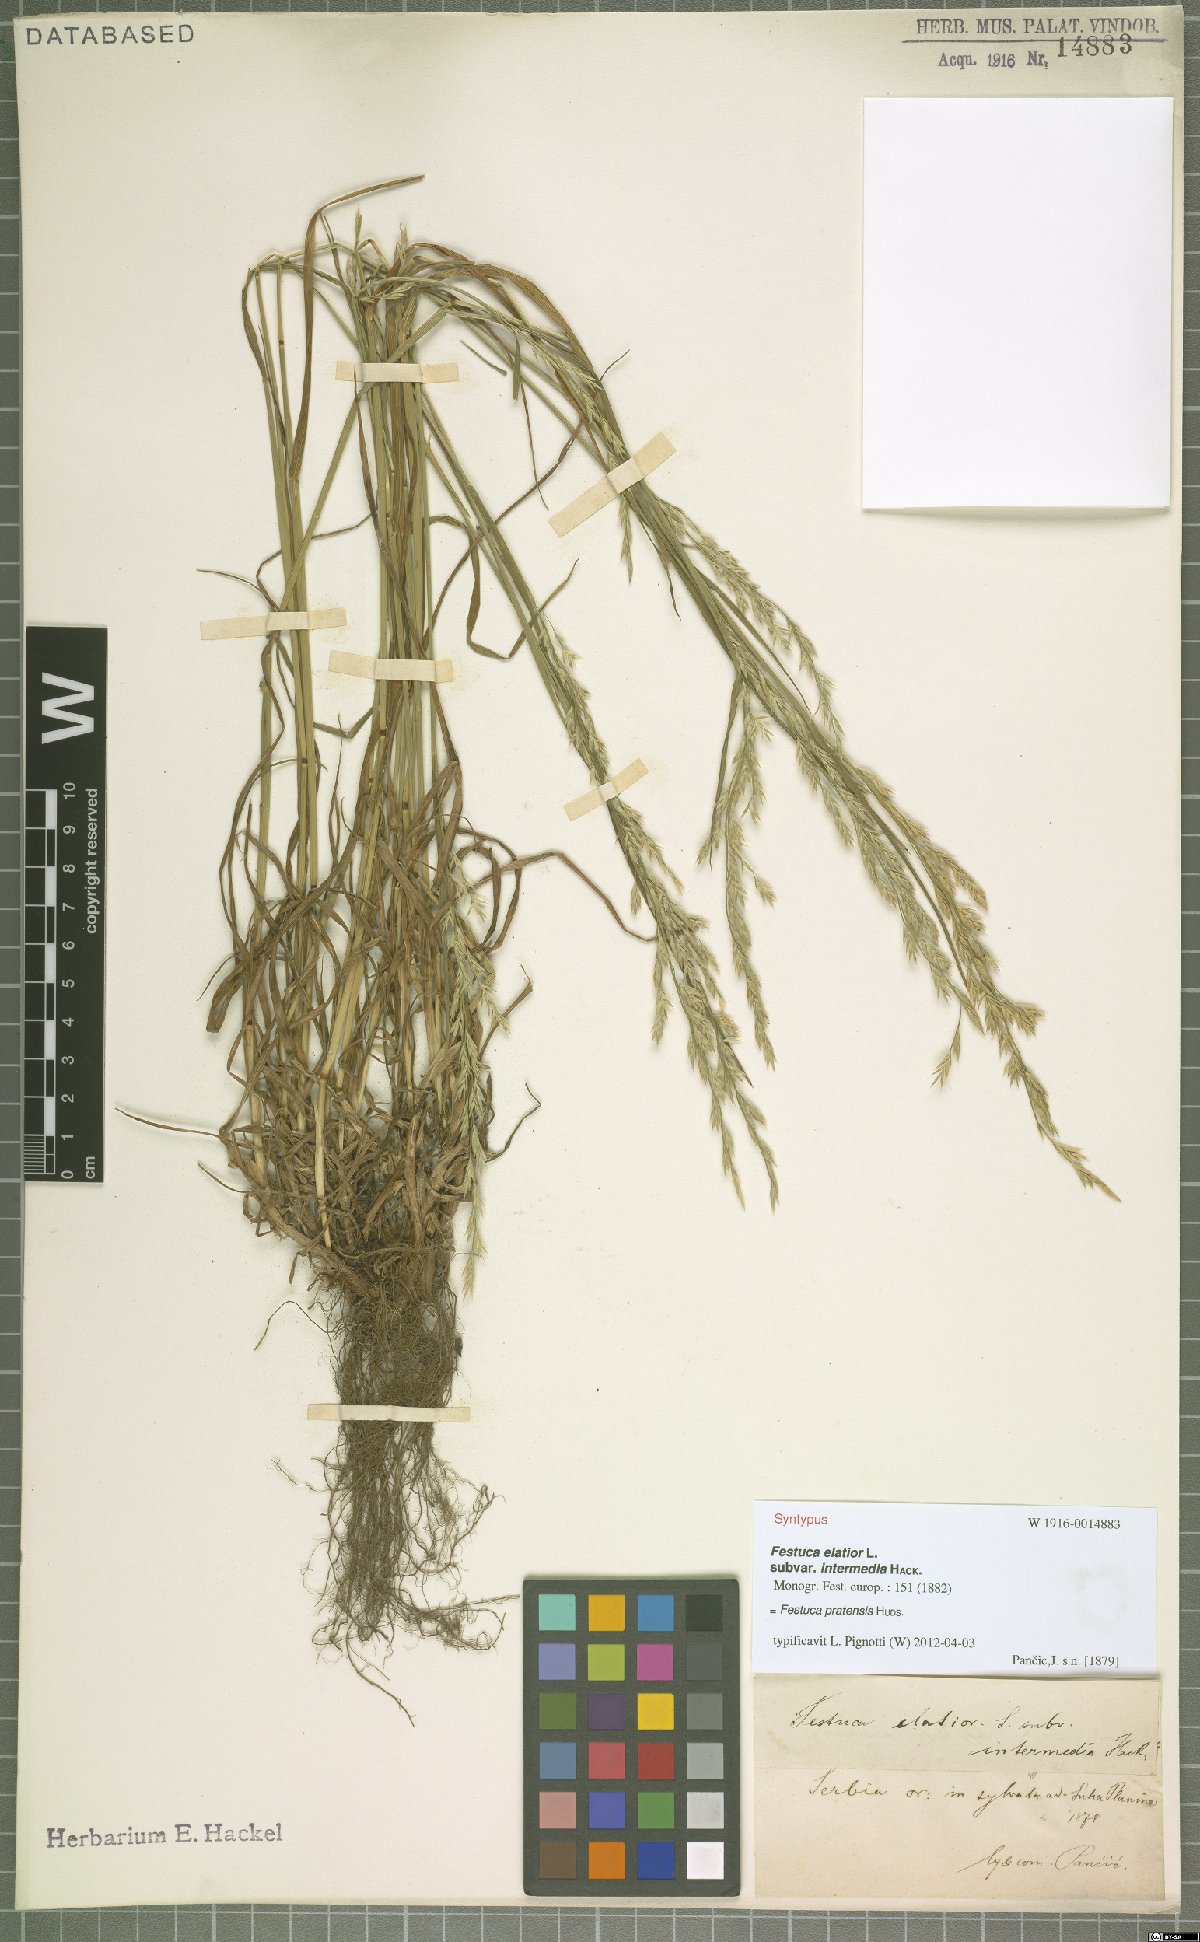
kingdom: Plantae
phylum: Tracheophyta
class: Liliopsida
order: Poales
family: Poaceae
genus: Lolium
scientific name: Lolium pratense
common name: Dover grass
